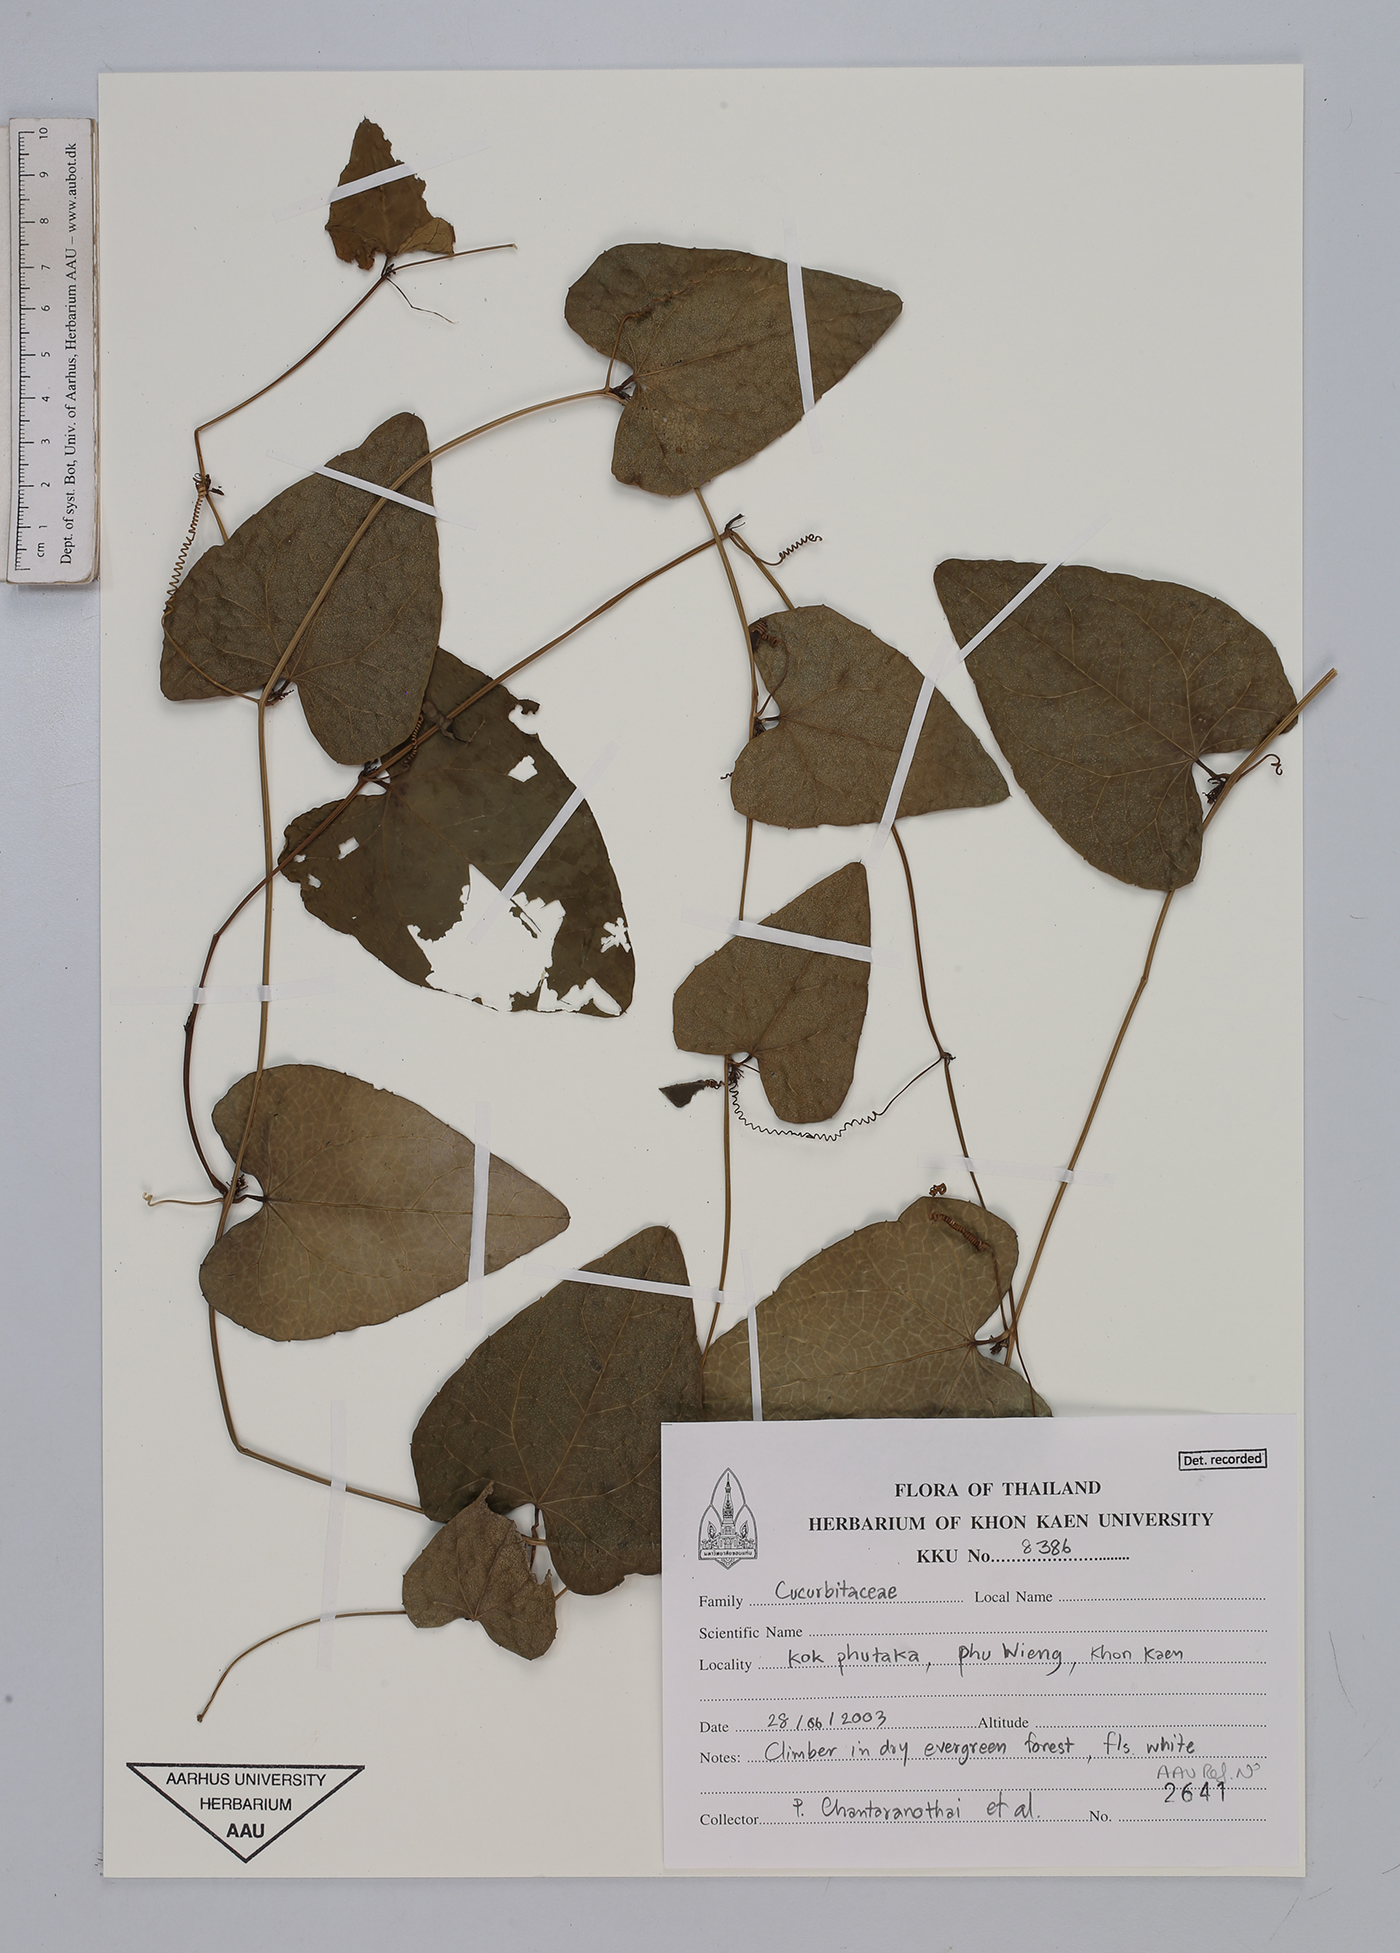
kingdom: Plantae
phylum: Tracheophyta
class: Magnoliopsida
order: Cucurbitales
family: Cucurbitaceae
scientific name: Cucurbitaceae
